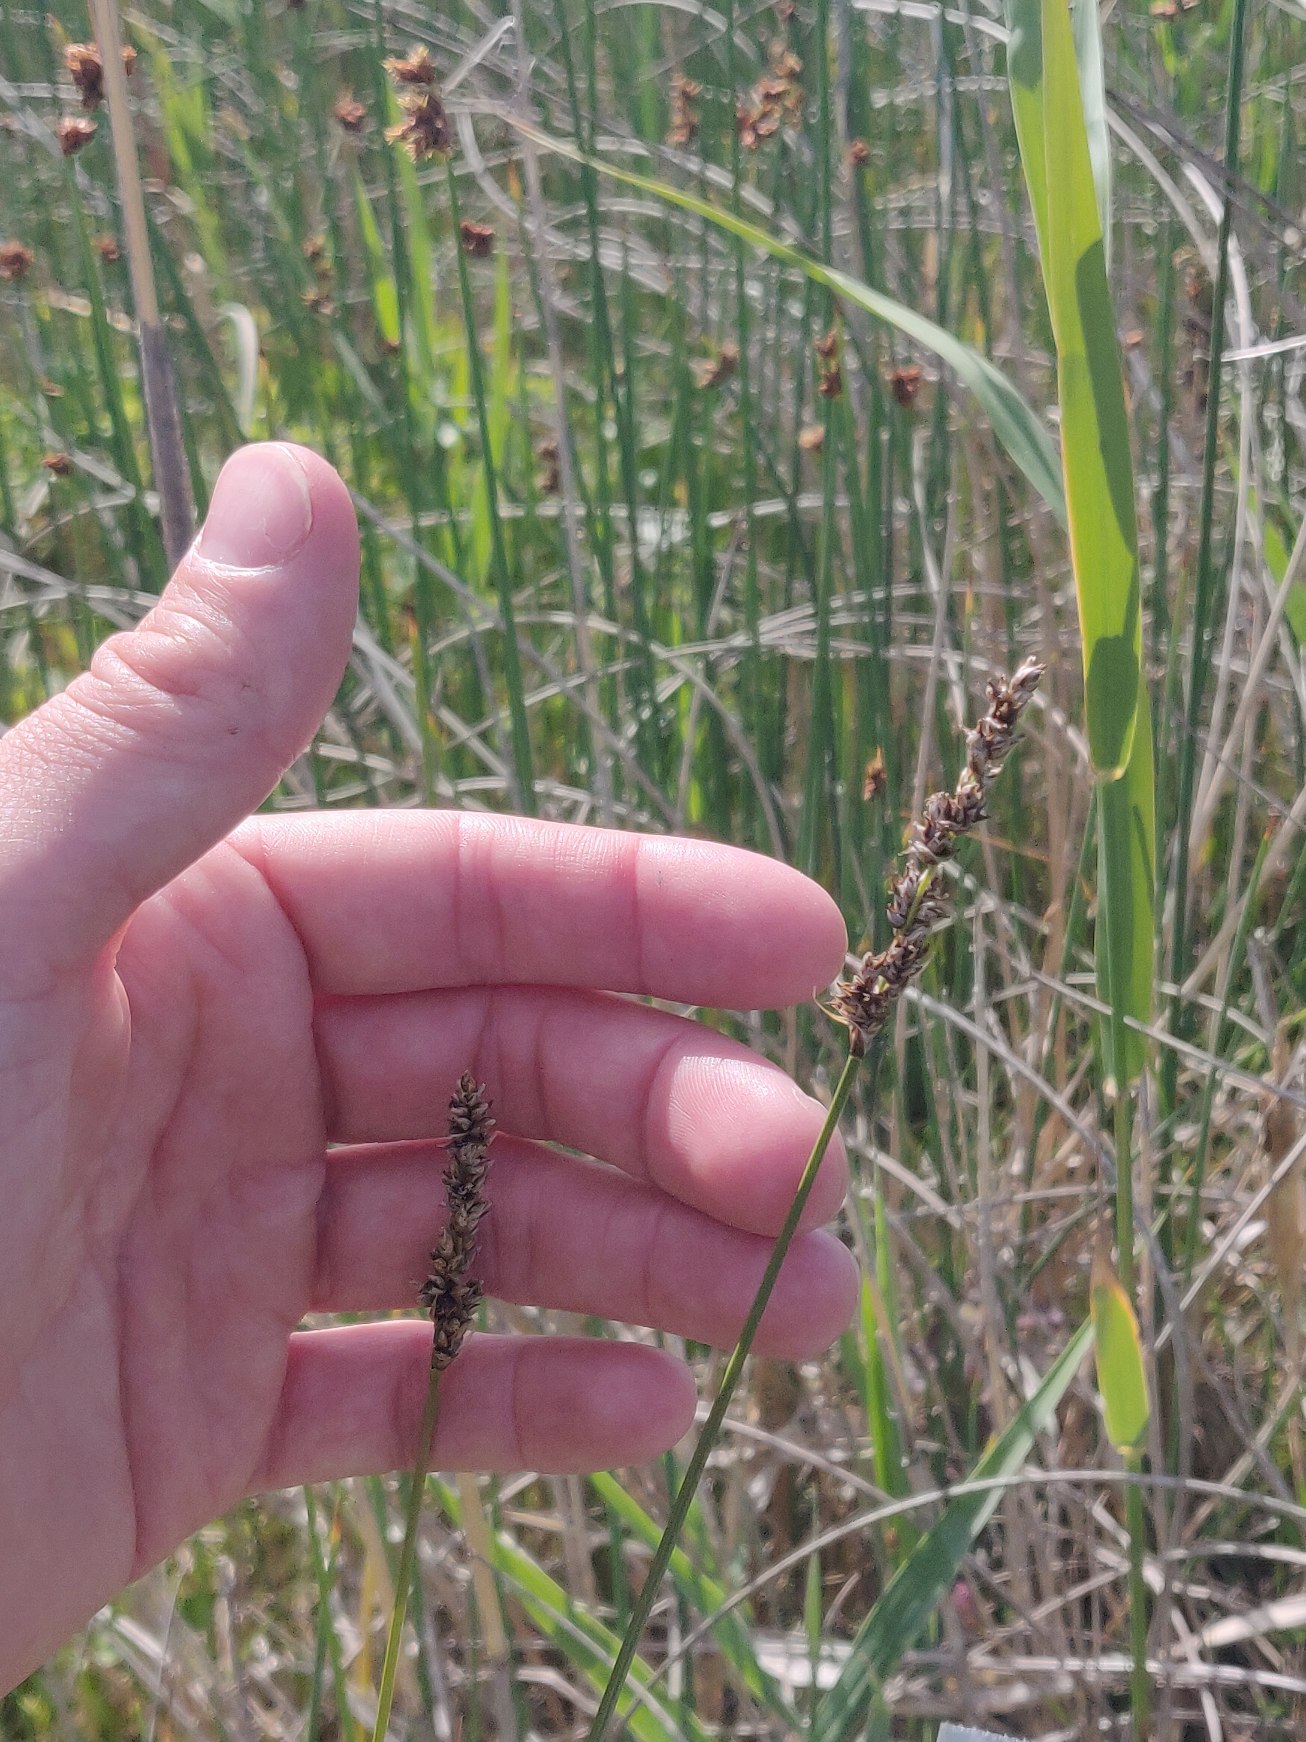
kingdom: Plantae
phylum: Tracheophyta
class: Liliopsida
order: Poales
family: Cyperaceae
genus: Carex
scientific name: Carex paniculata
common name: Top-star
